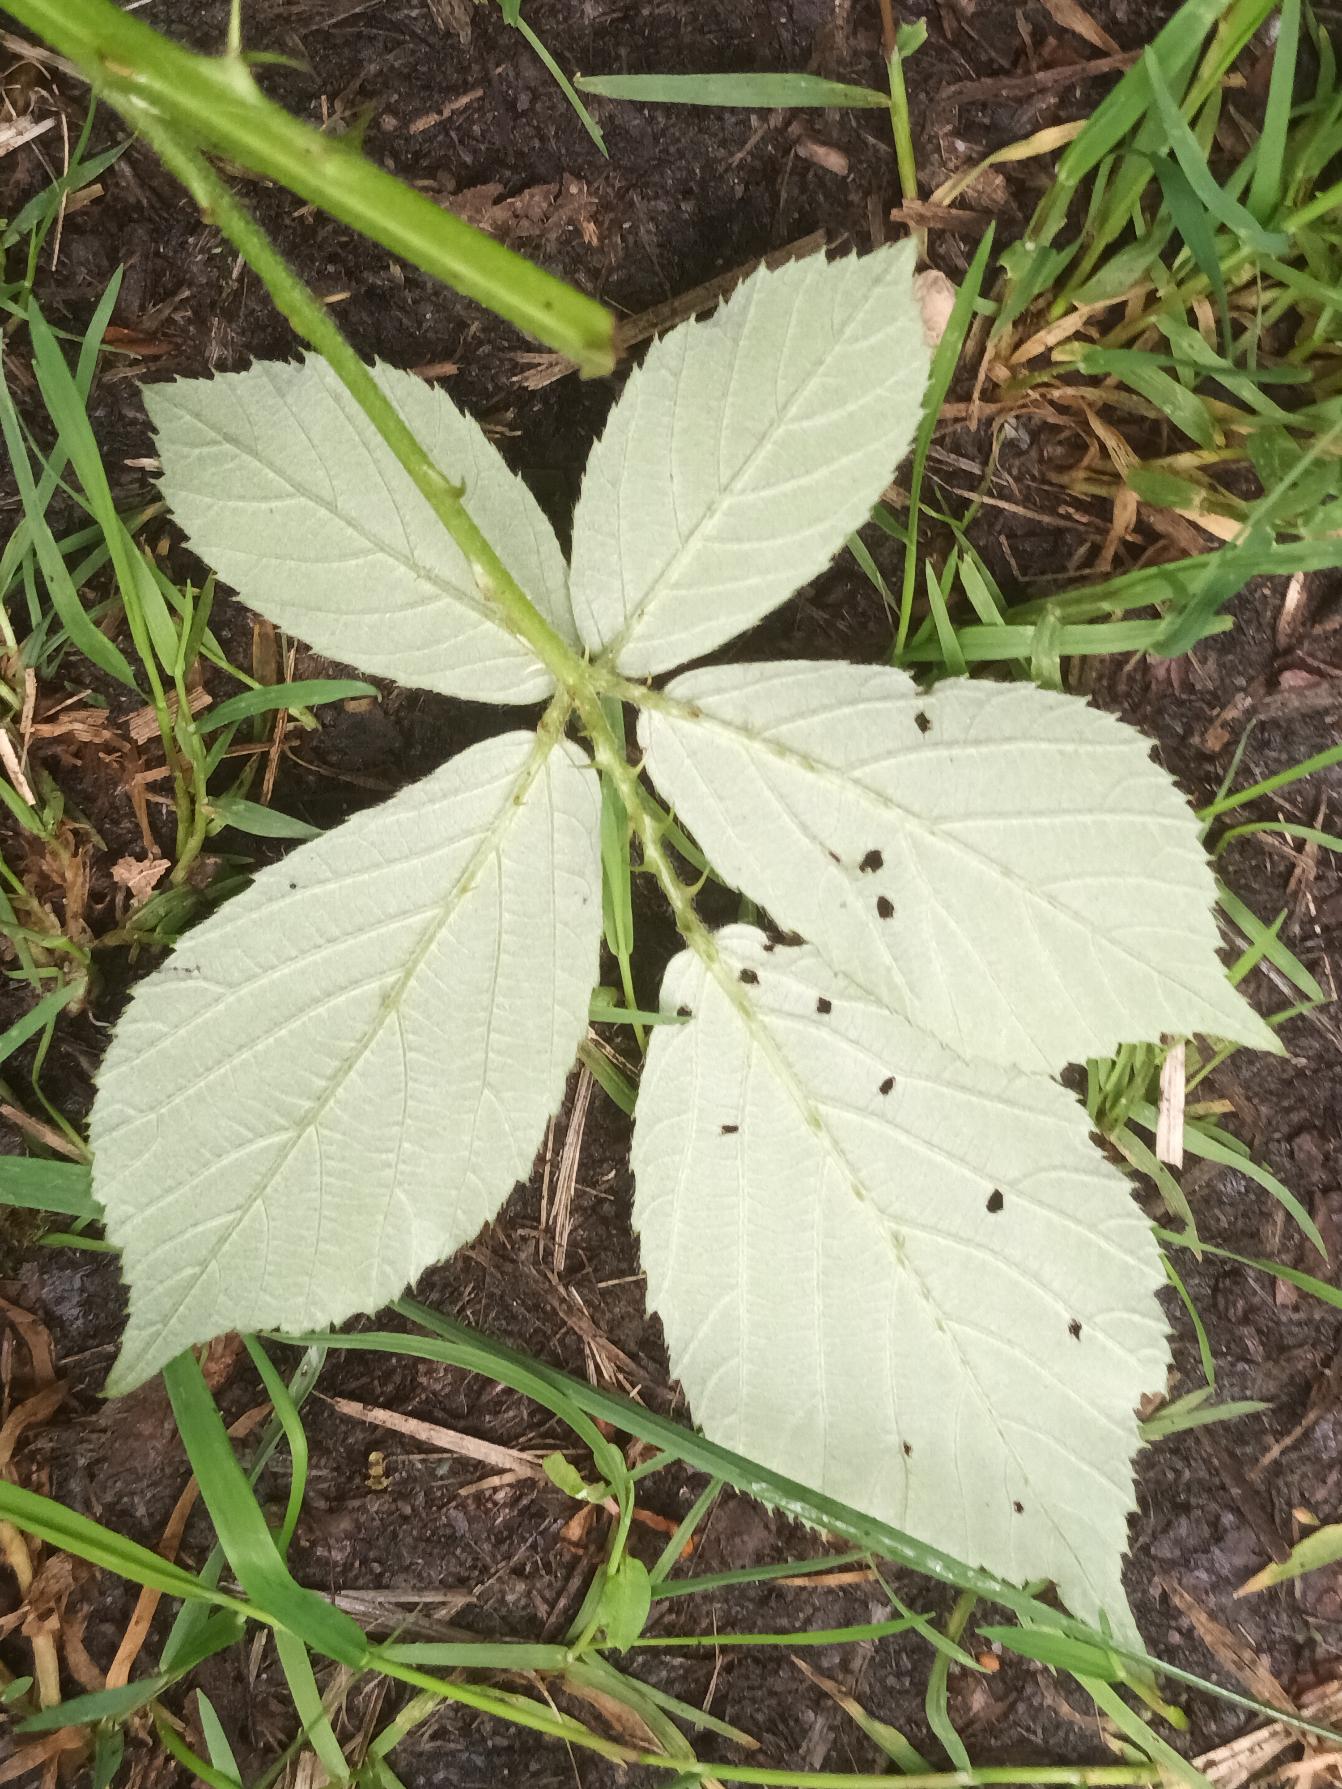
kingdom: Plantae
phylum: Tracheophyta
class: Magnoliopsida
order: Rosales
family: Rosaceae
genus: Rubus
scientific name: Rubus lindebergii
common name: Lindebergs brombær
